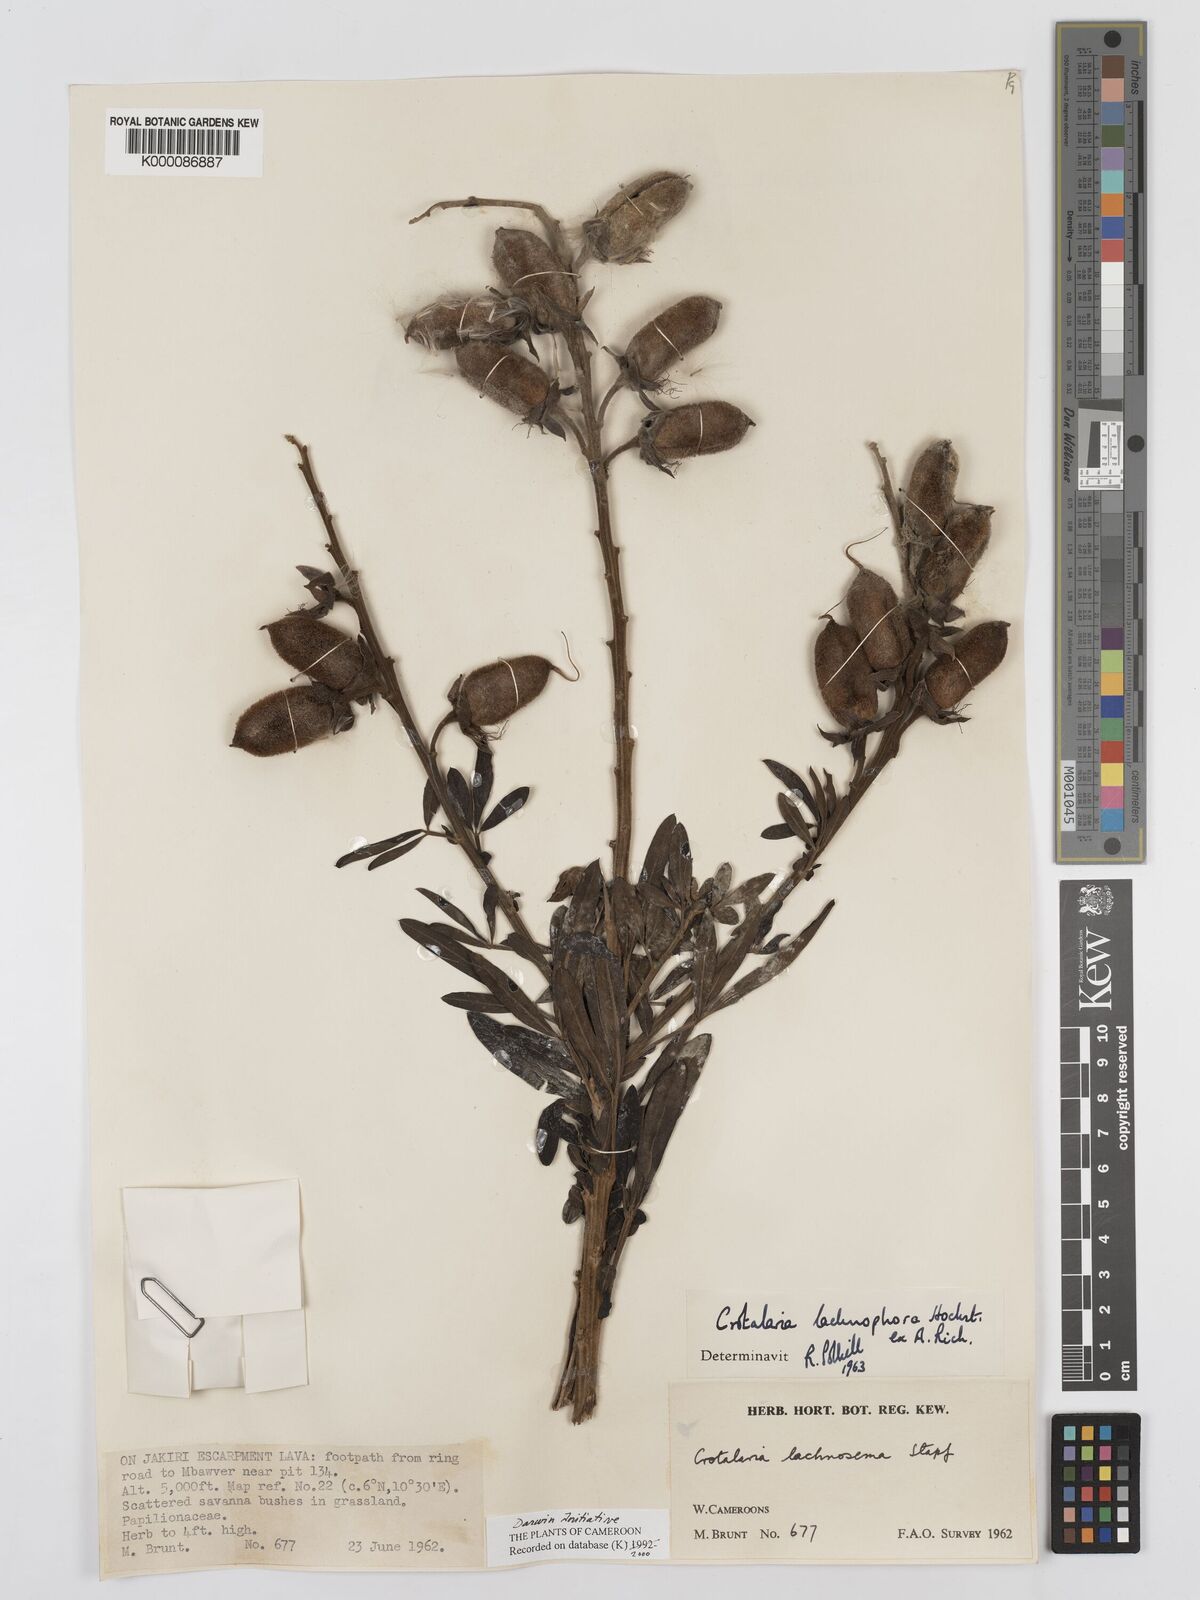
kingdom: Plantae
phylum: Tracheophyta
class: Magnoliopsida
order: Fabales
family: Fabaceae
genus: Crotalaria
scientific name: Crotalaria lachnophora
